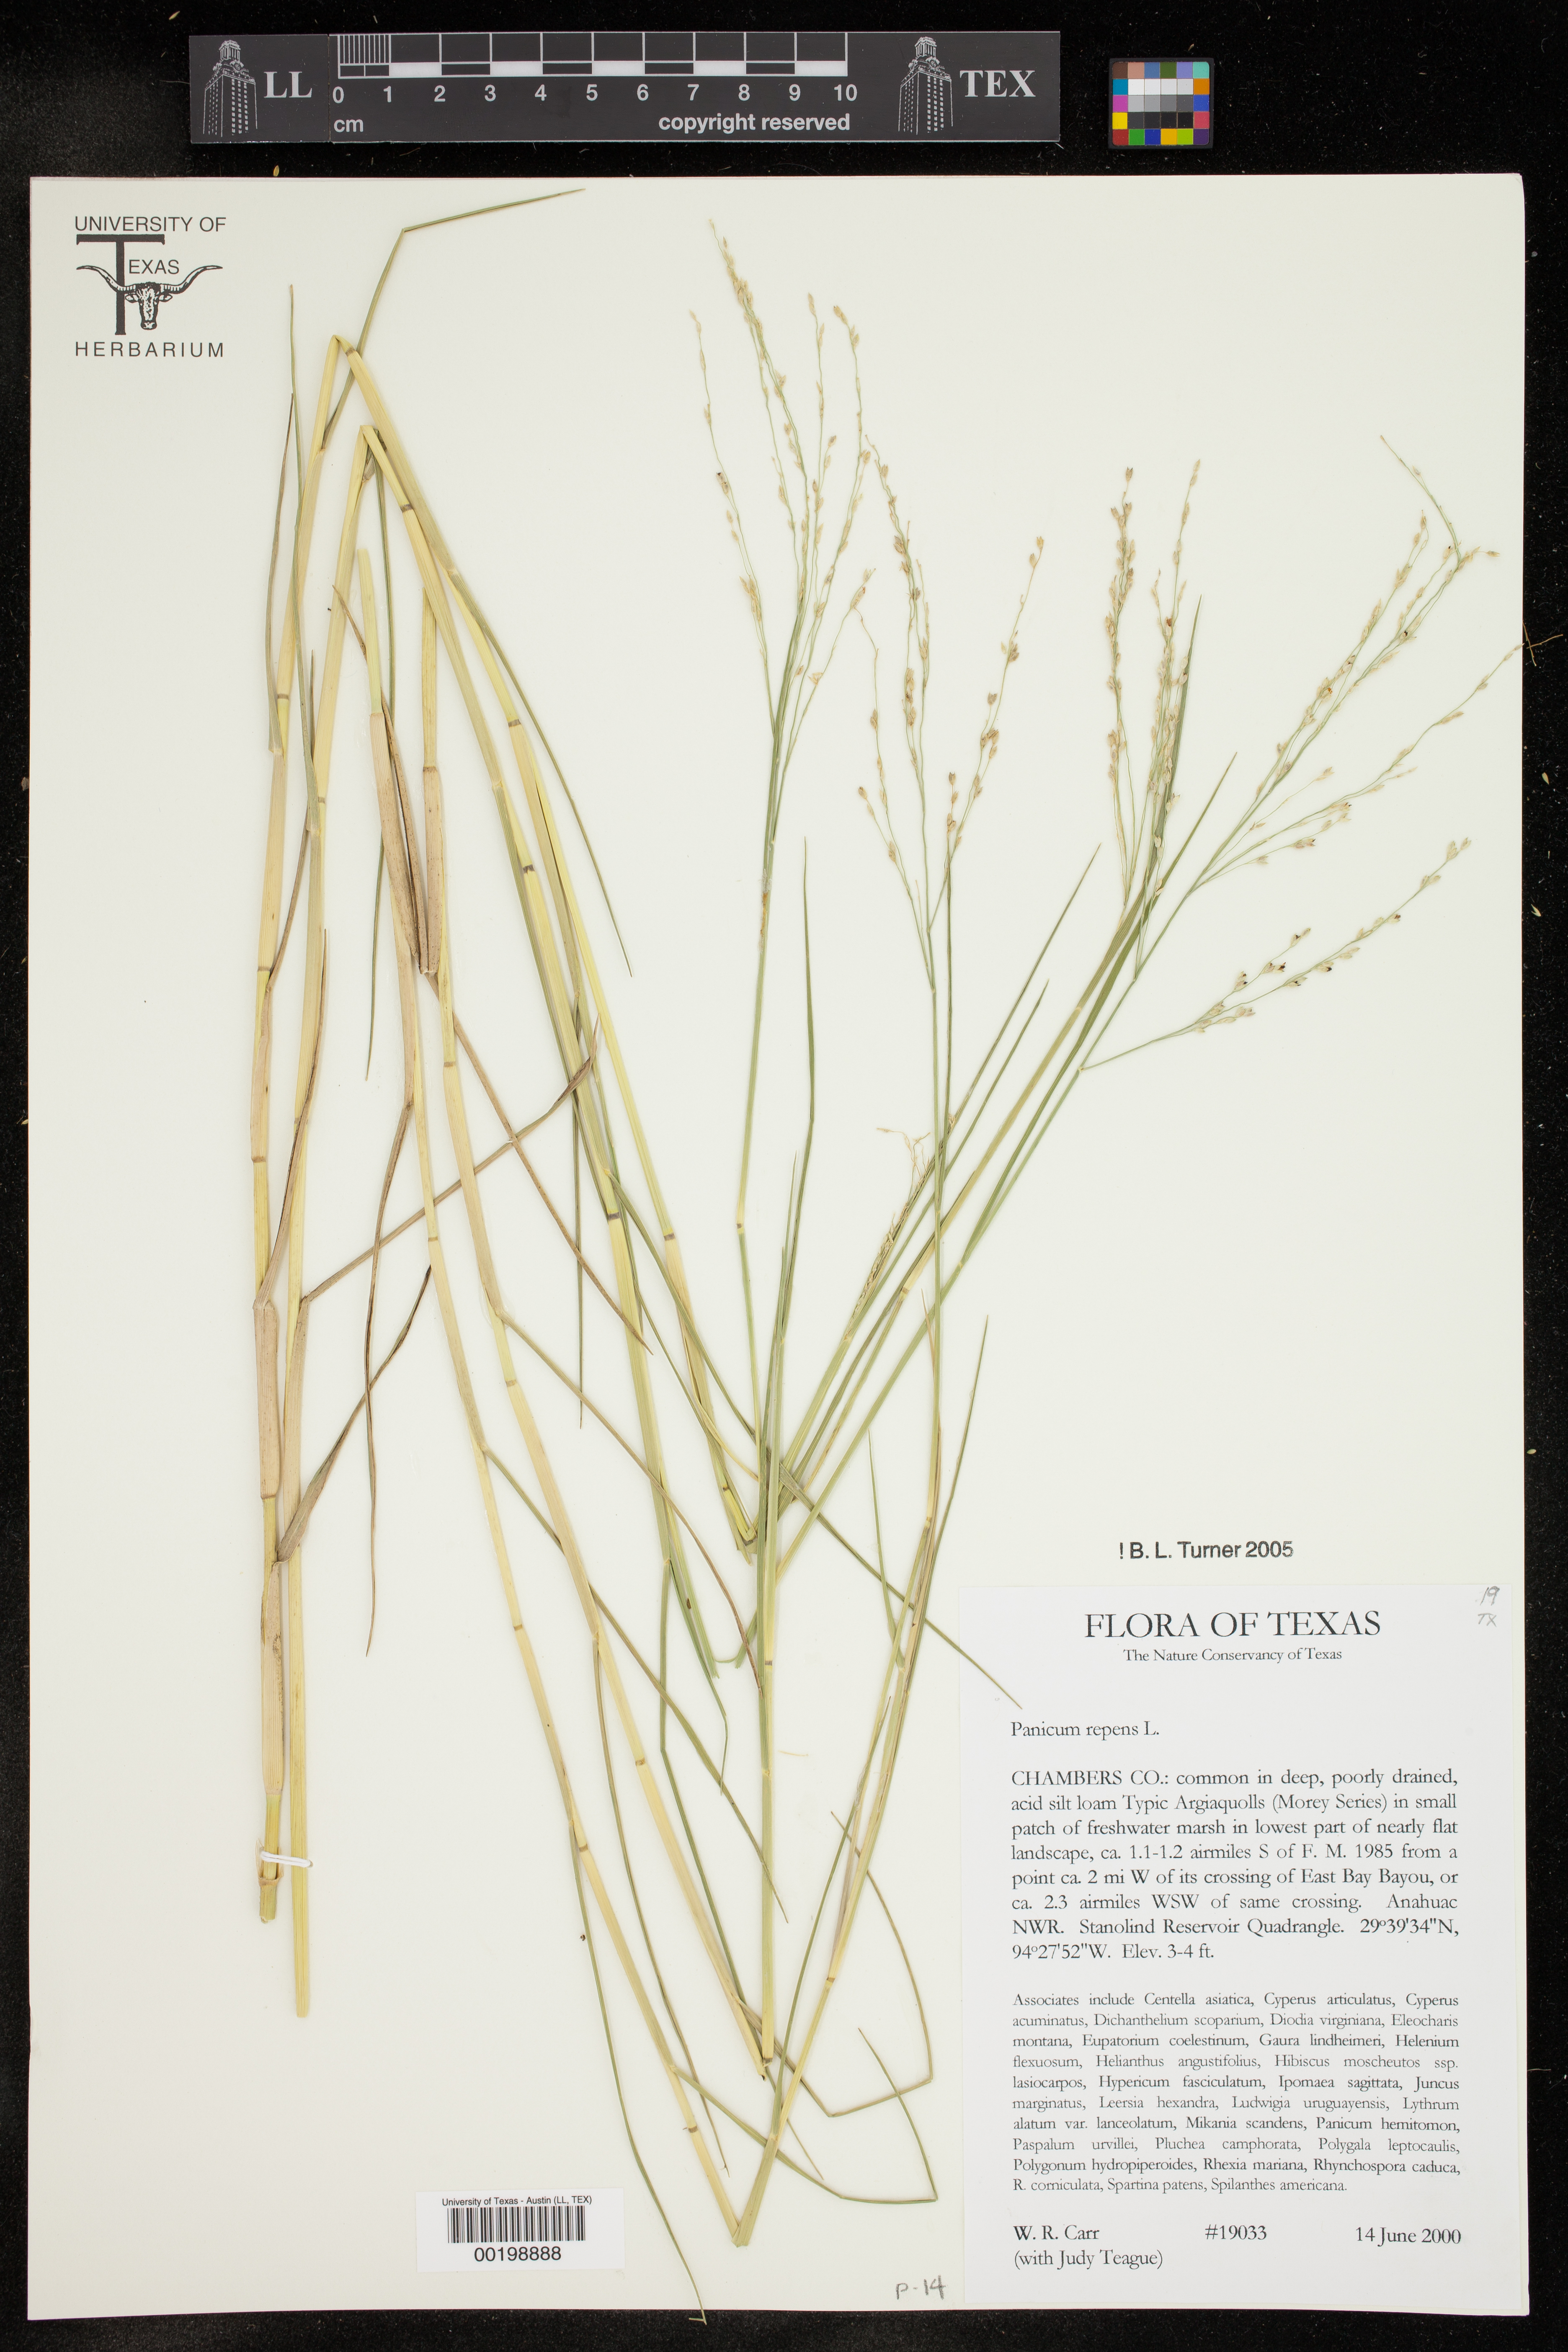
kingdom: Plantae
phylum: Tracheophyta
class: Liliopsida
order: Poales
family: Poaceae
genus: Panicum
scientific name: Panicum repens
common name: Torpedo grass
